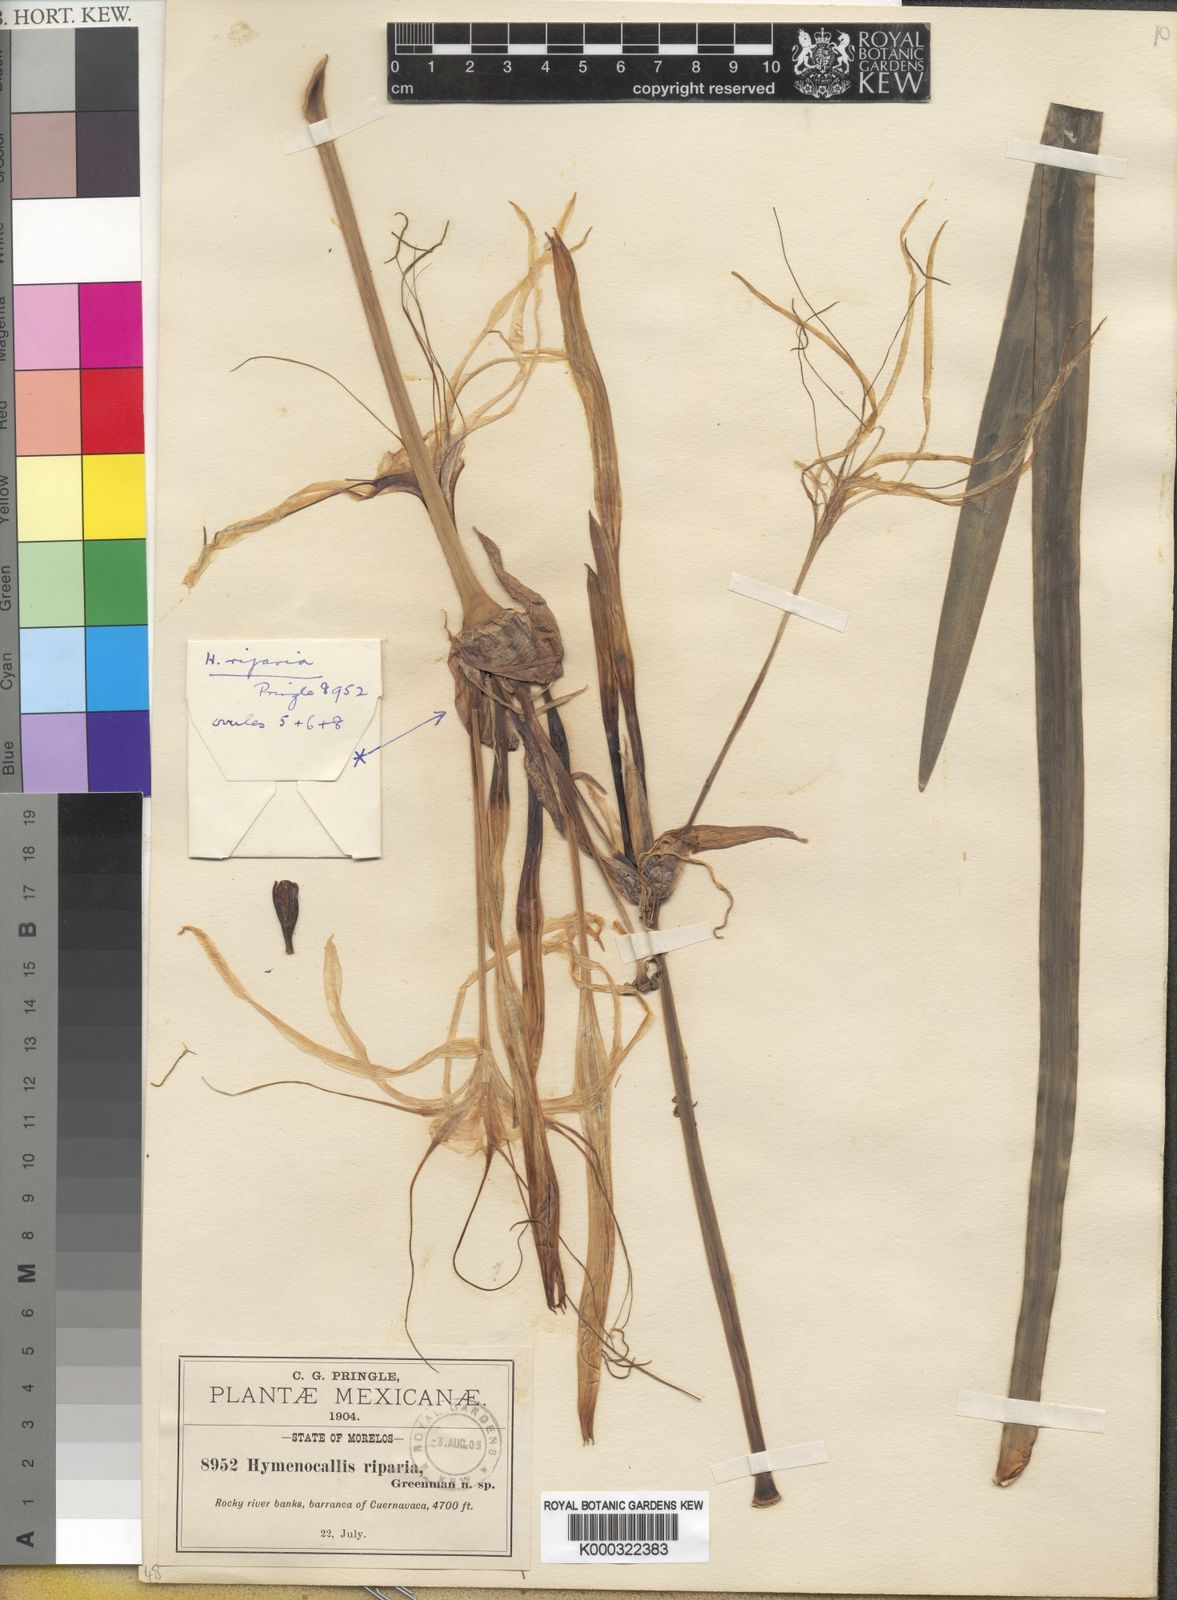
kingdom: Plantae
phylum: Tracheophyta
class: Liliopsida
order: Asparagales
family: Amaryllidaceae
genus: Hymenocallis
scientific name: Hymenocallis acutifolia
